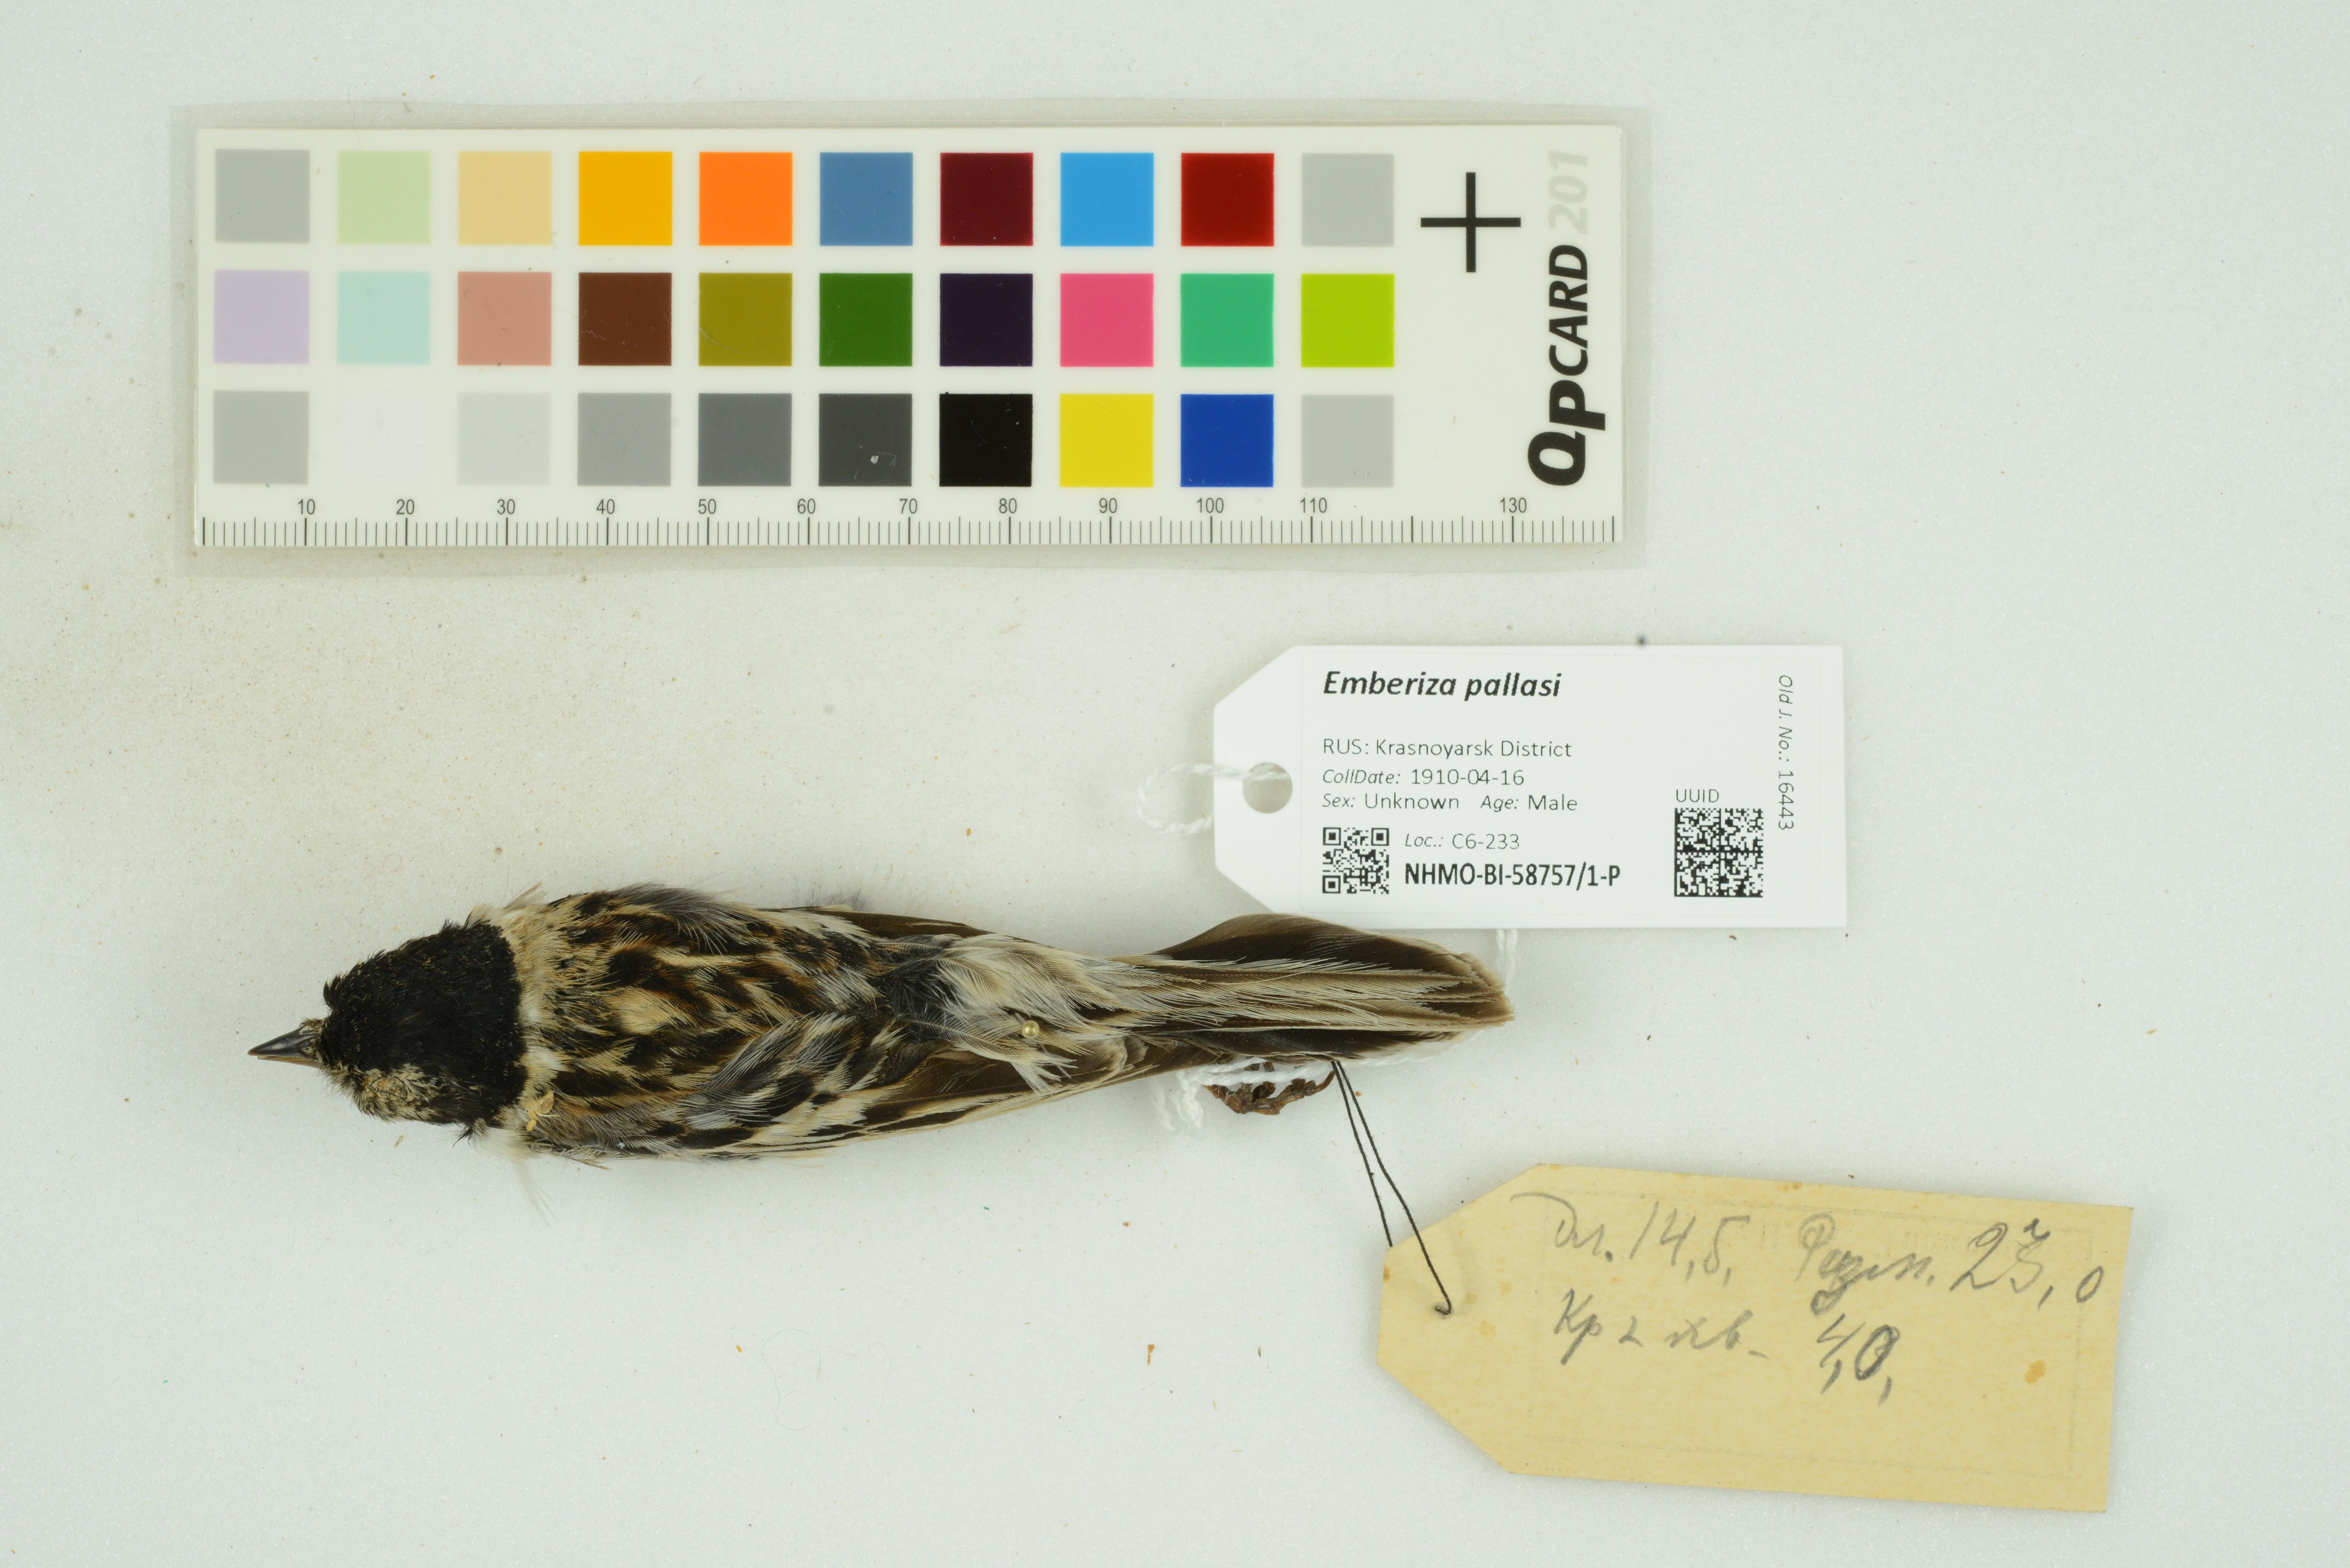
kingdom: Animalia
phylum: Chordata
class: Aves
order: Passeriformes
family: Emberizidae
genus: Emberiza
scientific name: Emberiza pallasi
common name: Pallas's reed bunting
